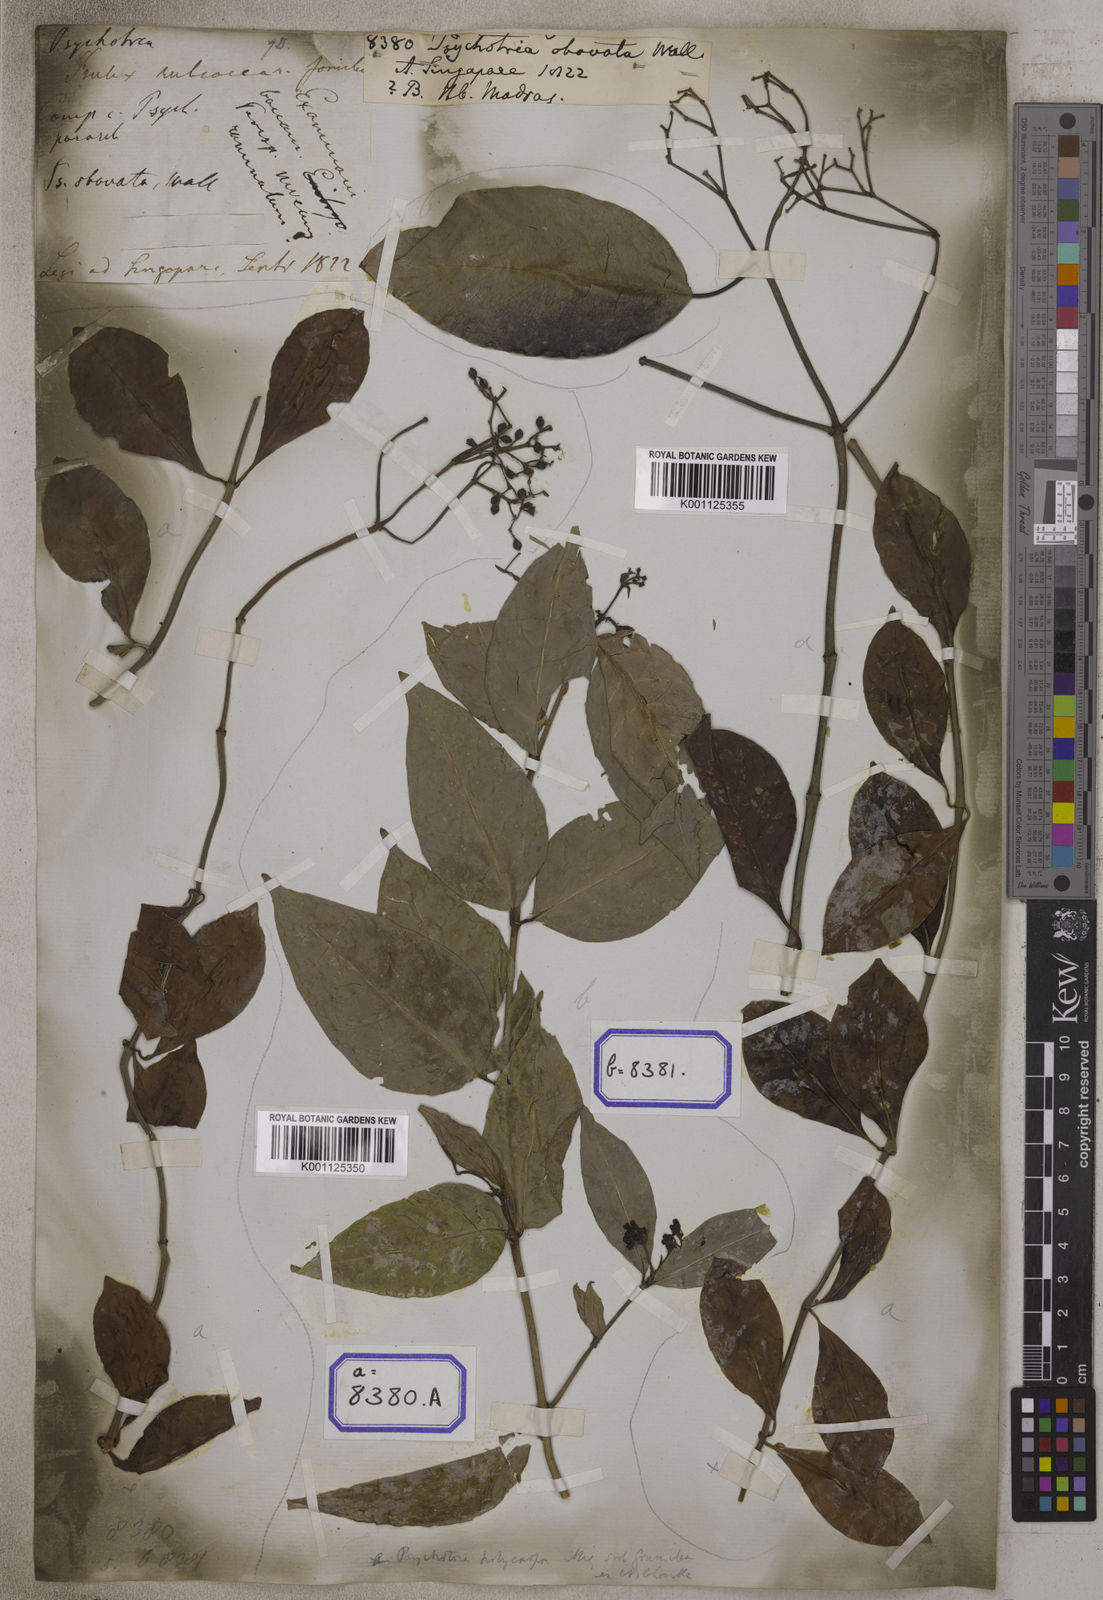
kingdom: Plantae
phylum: Tracheophyta
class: Magnoliopsida
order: Gentianales
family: Rubiaceae
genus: Psychotria
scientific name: Psychotria
